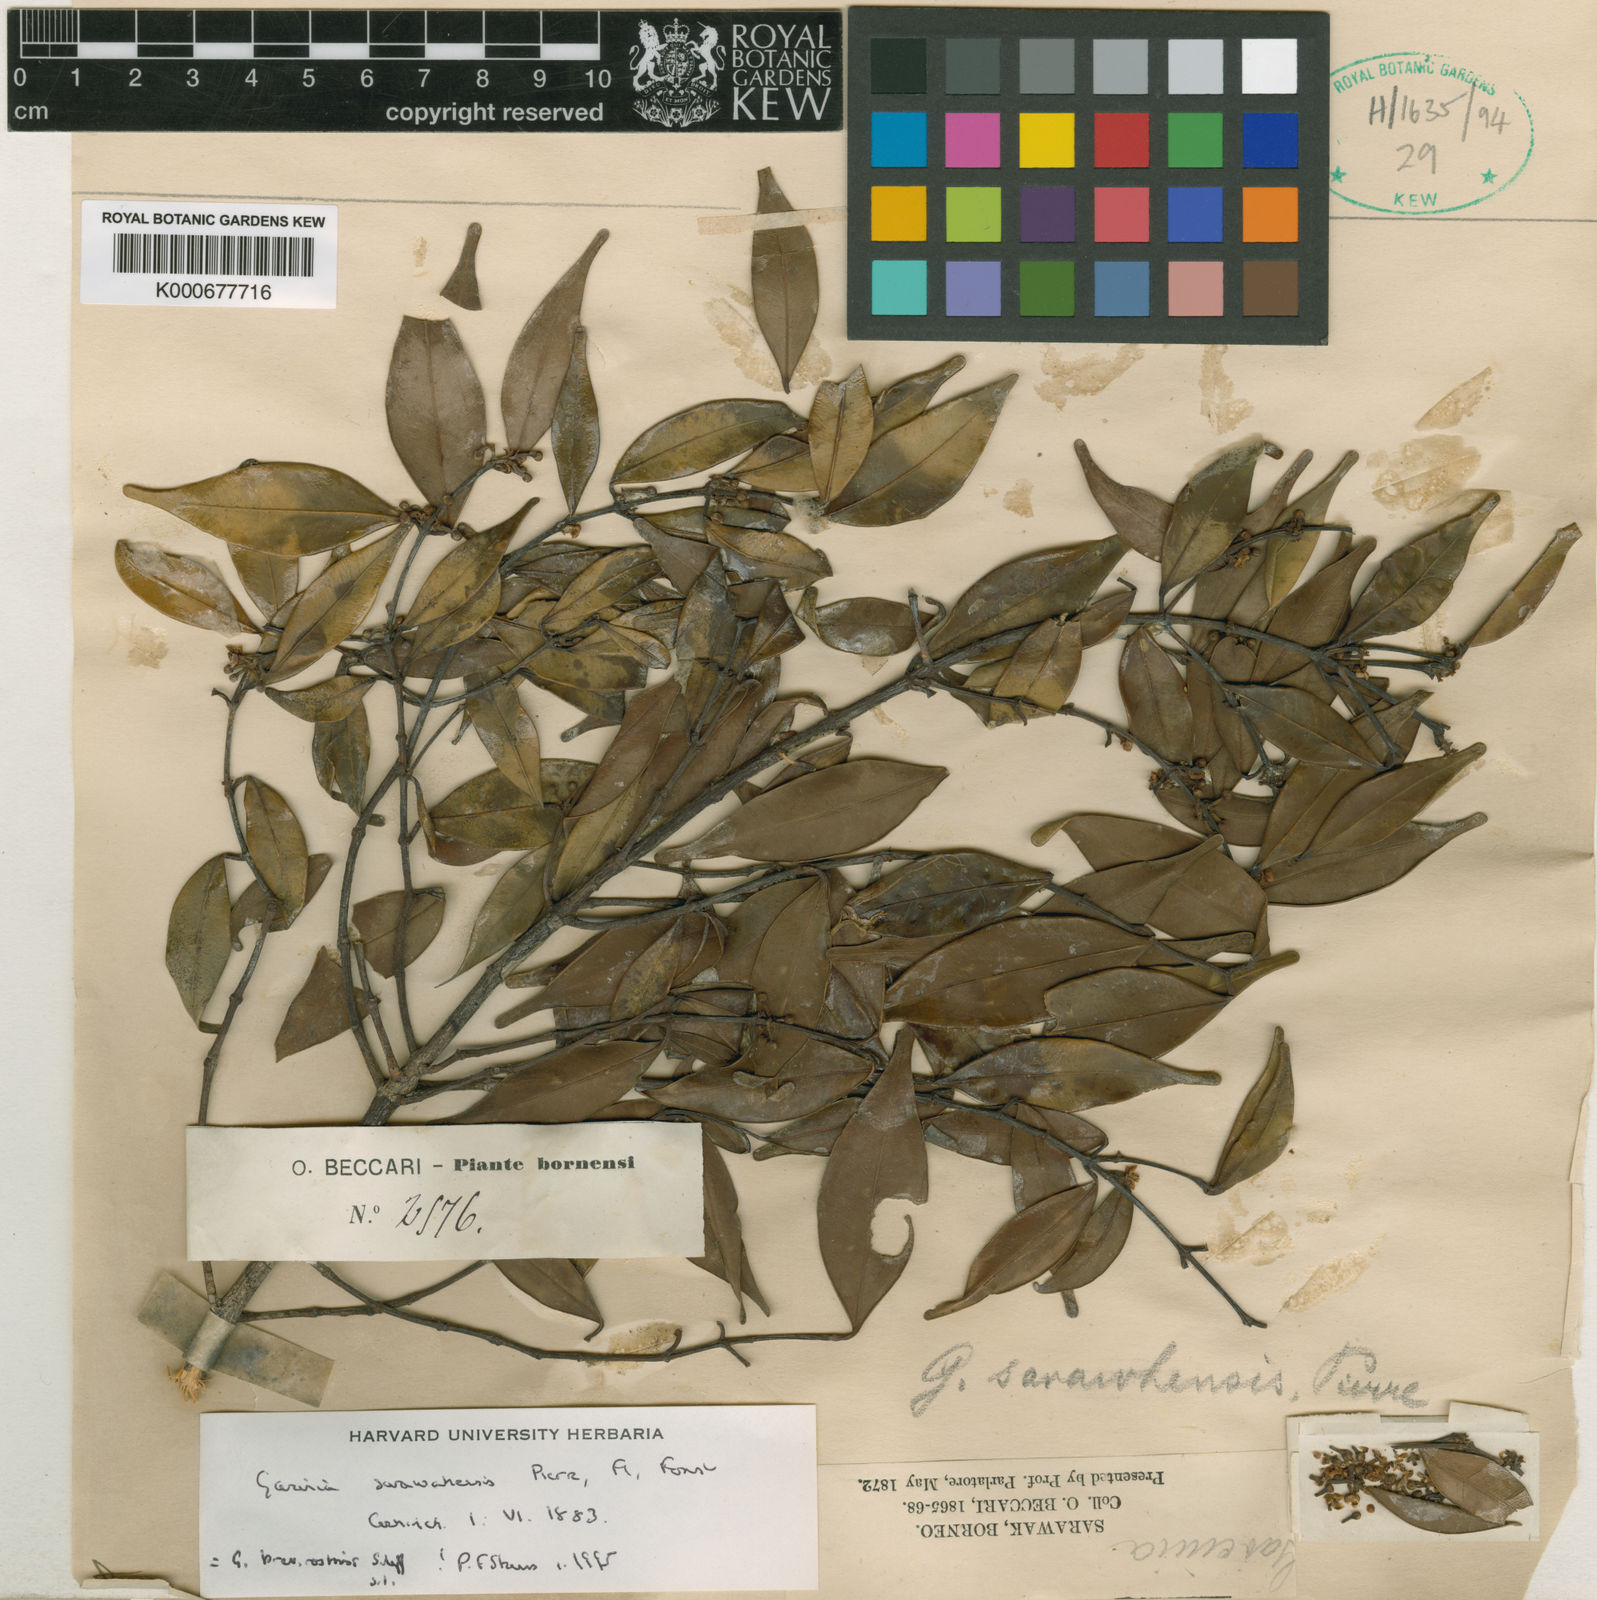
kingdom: Plantae
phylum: Tracheophyta
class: Magnoliopsida
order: Malpighiales
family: Clusiaceae
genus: Garcinia
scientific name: Garcinia sarawhensis
